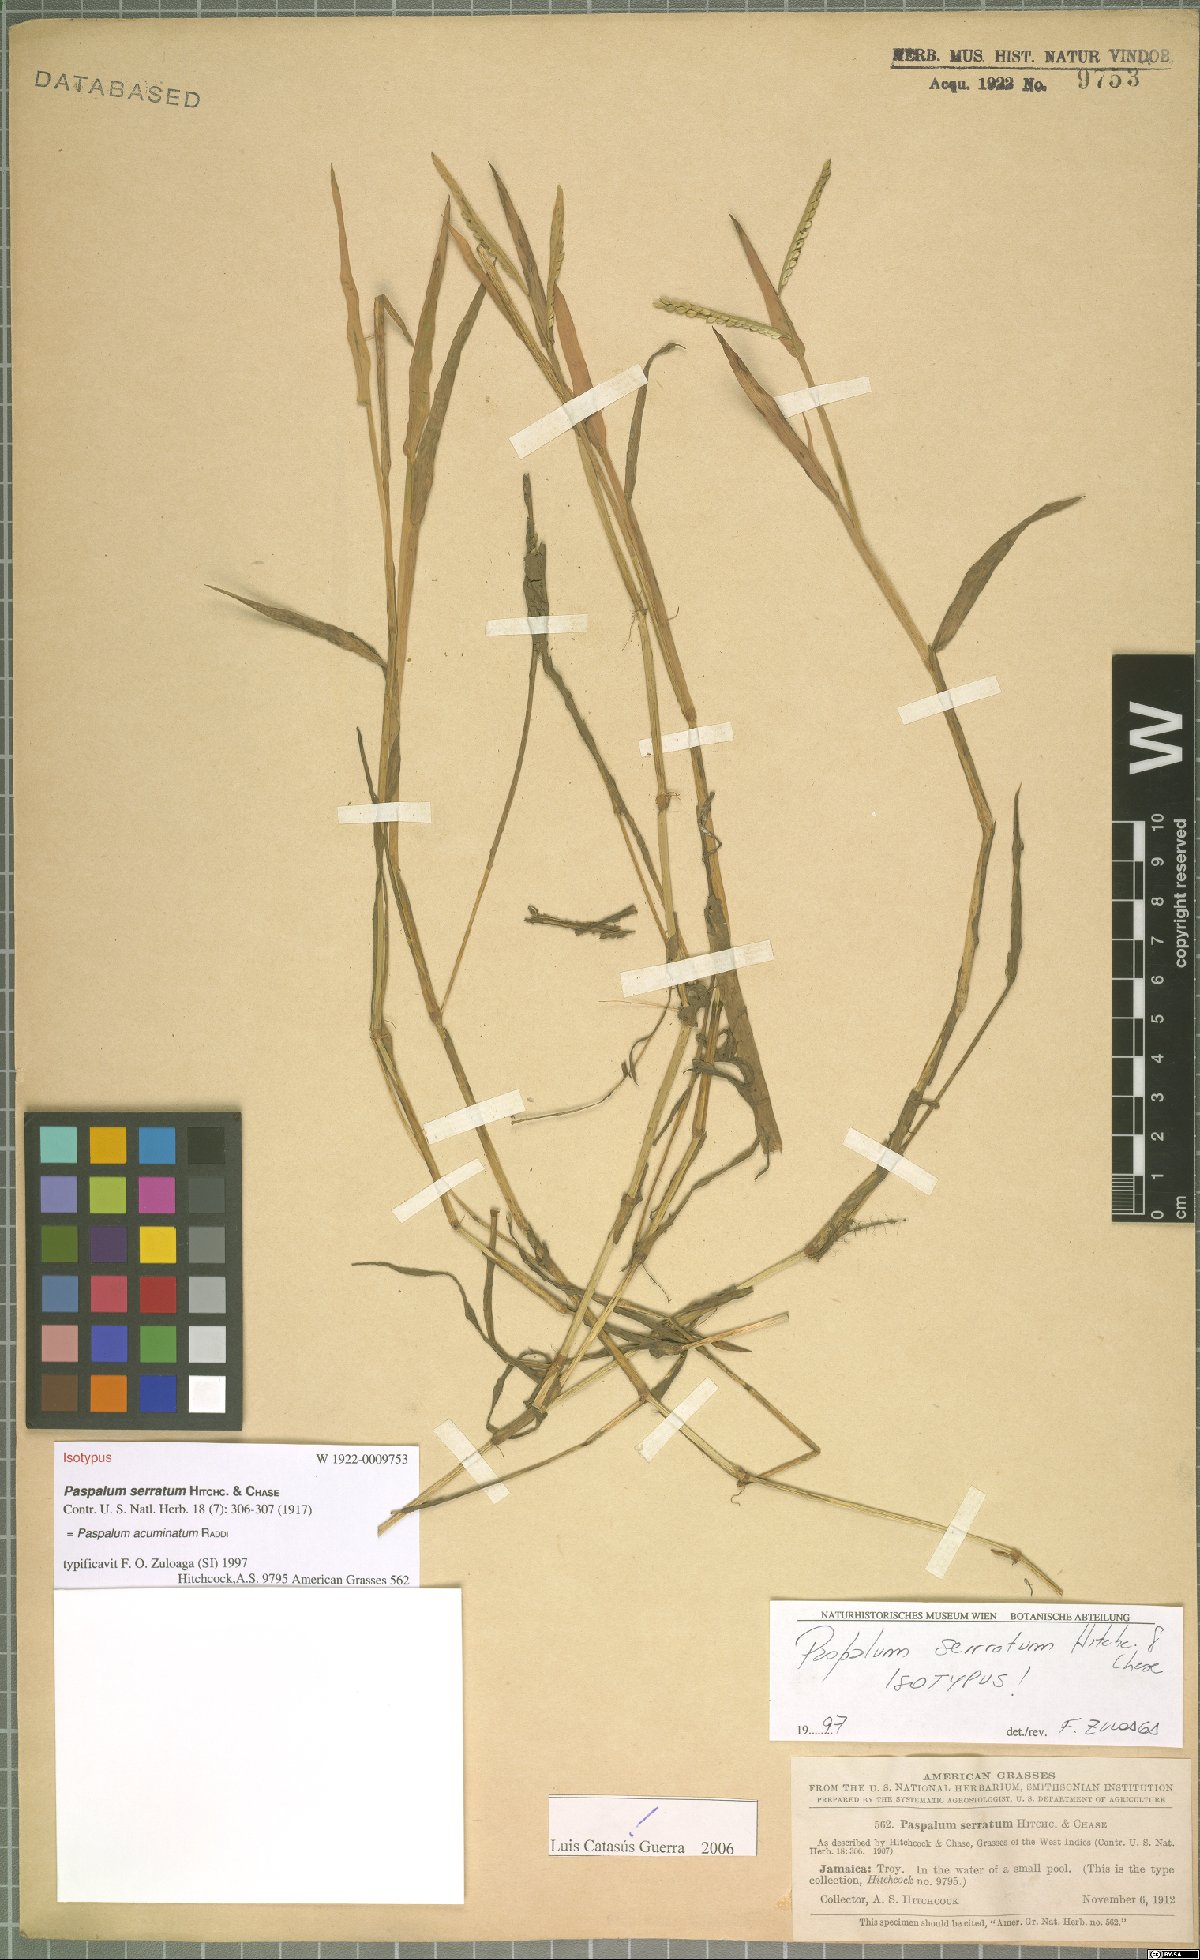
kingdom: Plantae
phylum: Tracheophyta
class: Liliopsida
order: Poales
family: Poaceae
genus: Paspalum
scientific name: Paspalum acuminatum
